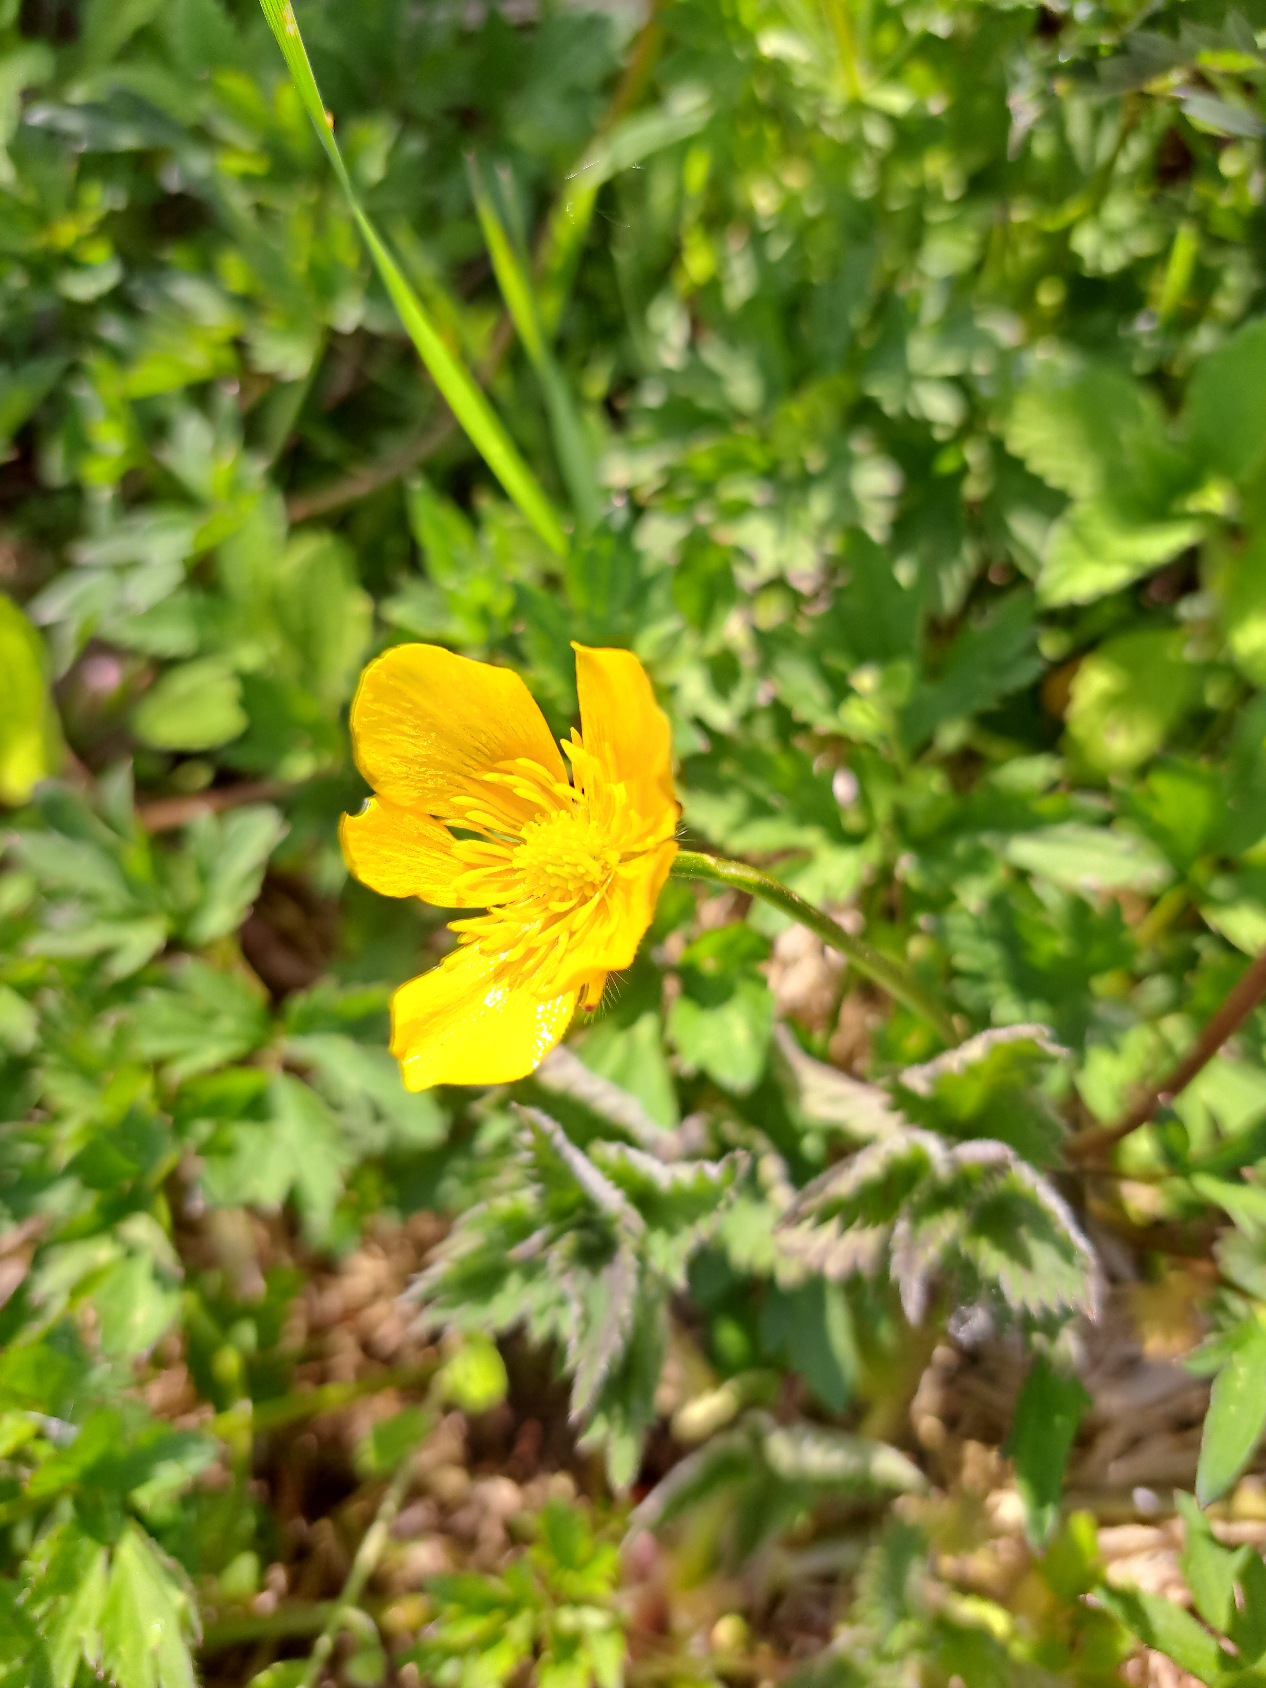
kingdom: Plantae
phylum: Tracheophyta
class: Magnoliopsida
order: Ranunculales
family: Ranunculaceae
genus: Ranunculus
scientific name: Ranunculus repens
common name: Lav ranunkel
